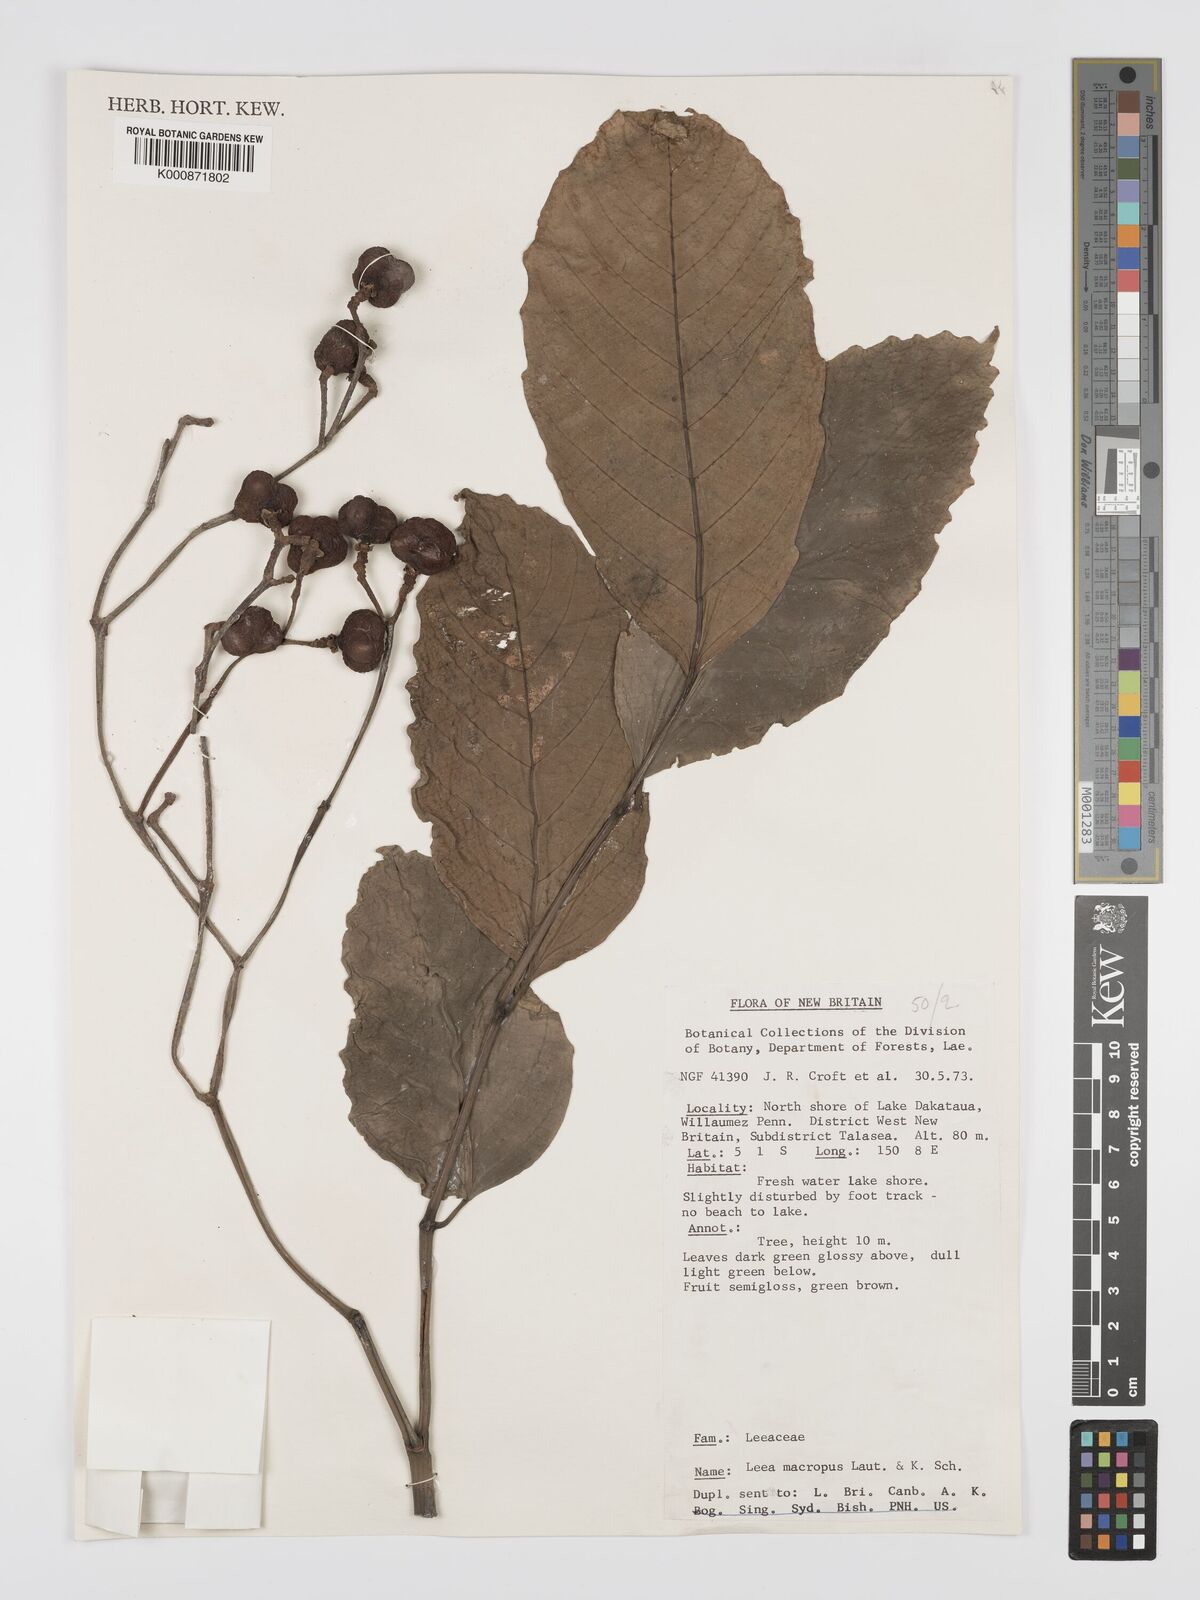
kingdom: Plantae
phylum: Tracheophyta
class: Magnoliopsida
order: Vitales
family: Vitaceae
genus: Leea
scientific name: Leea macropus
